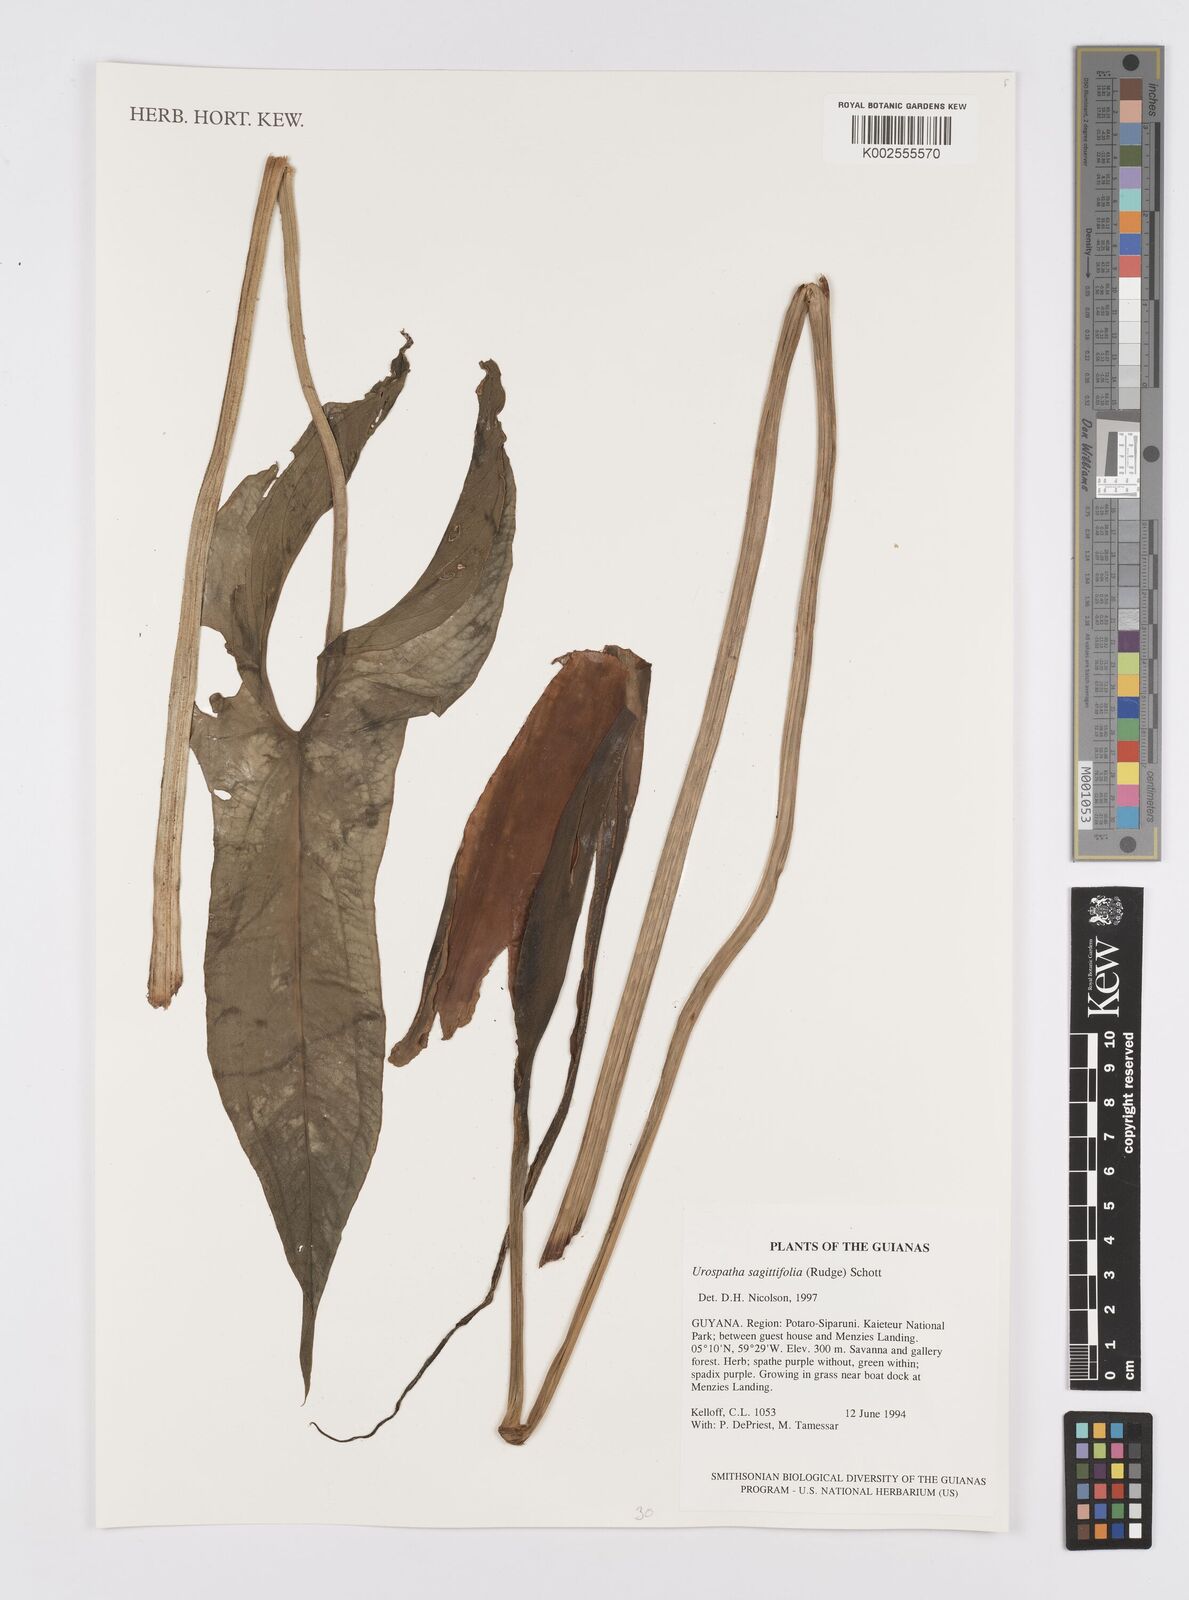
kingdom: Plantae
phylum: Tracheophyta
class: Liliopsida
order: Alismatales
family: Araceae
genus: Urospatha
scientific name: Urospatha sagittifolia
